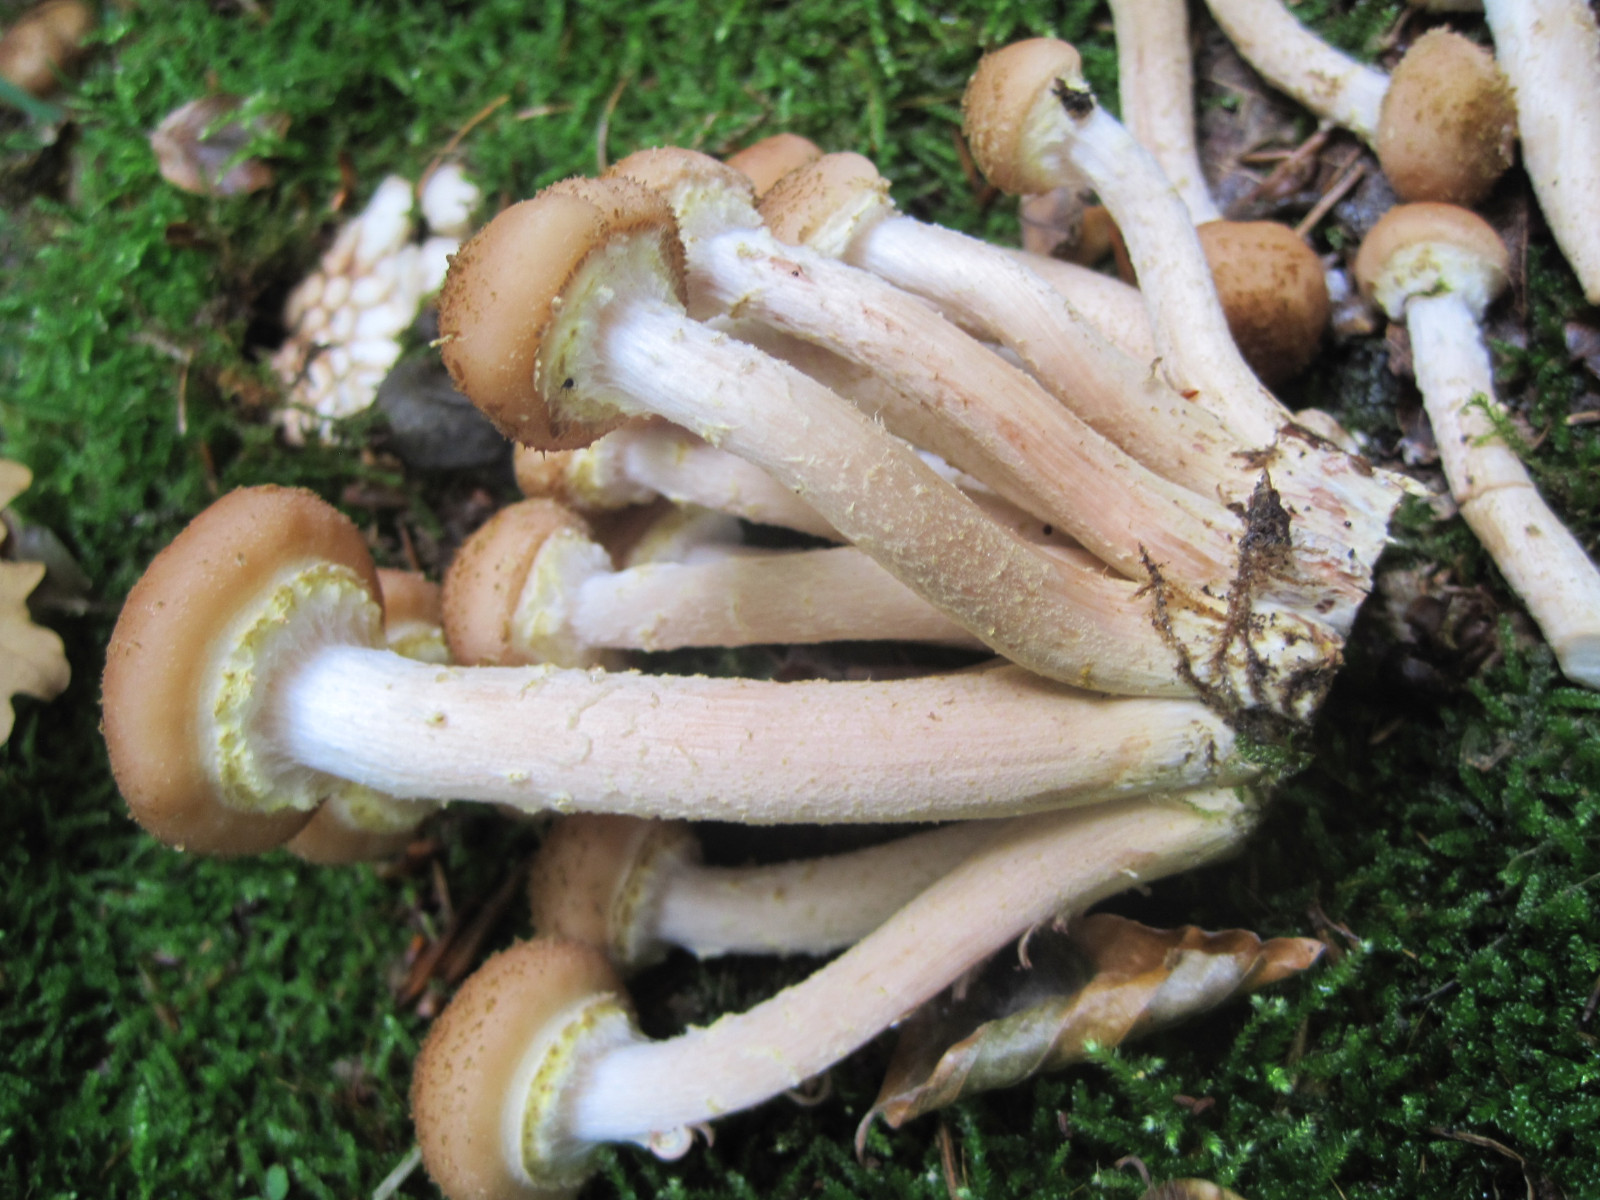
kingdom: Fungi
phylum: Basidiomycota
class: Agaricomycetes
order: Agaricales
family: Physalacriaceae
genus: Armillaria
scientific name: Armillaria lutea
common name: køllestokket honningsvamp
